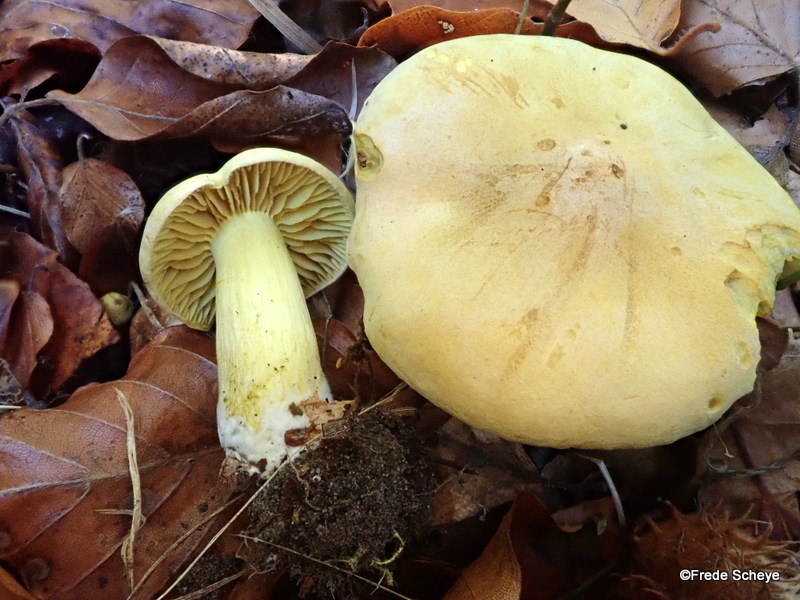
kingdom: Fungi
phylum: Basidiomycota
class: Agaricomycetes
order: Agaricales
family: Tricholomataceae
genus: Tricholoma
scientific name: Tricholoma sulphureum
